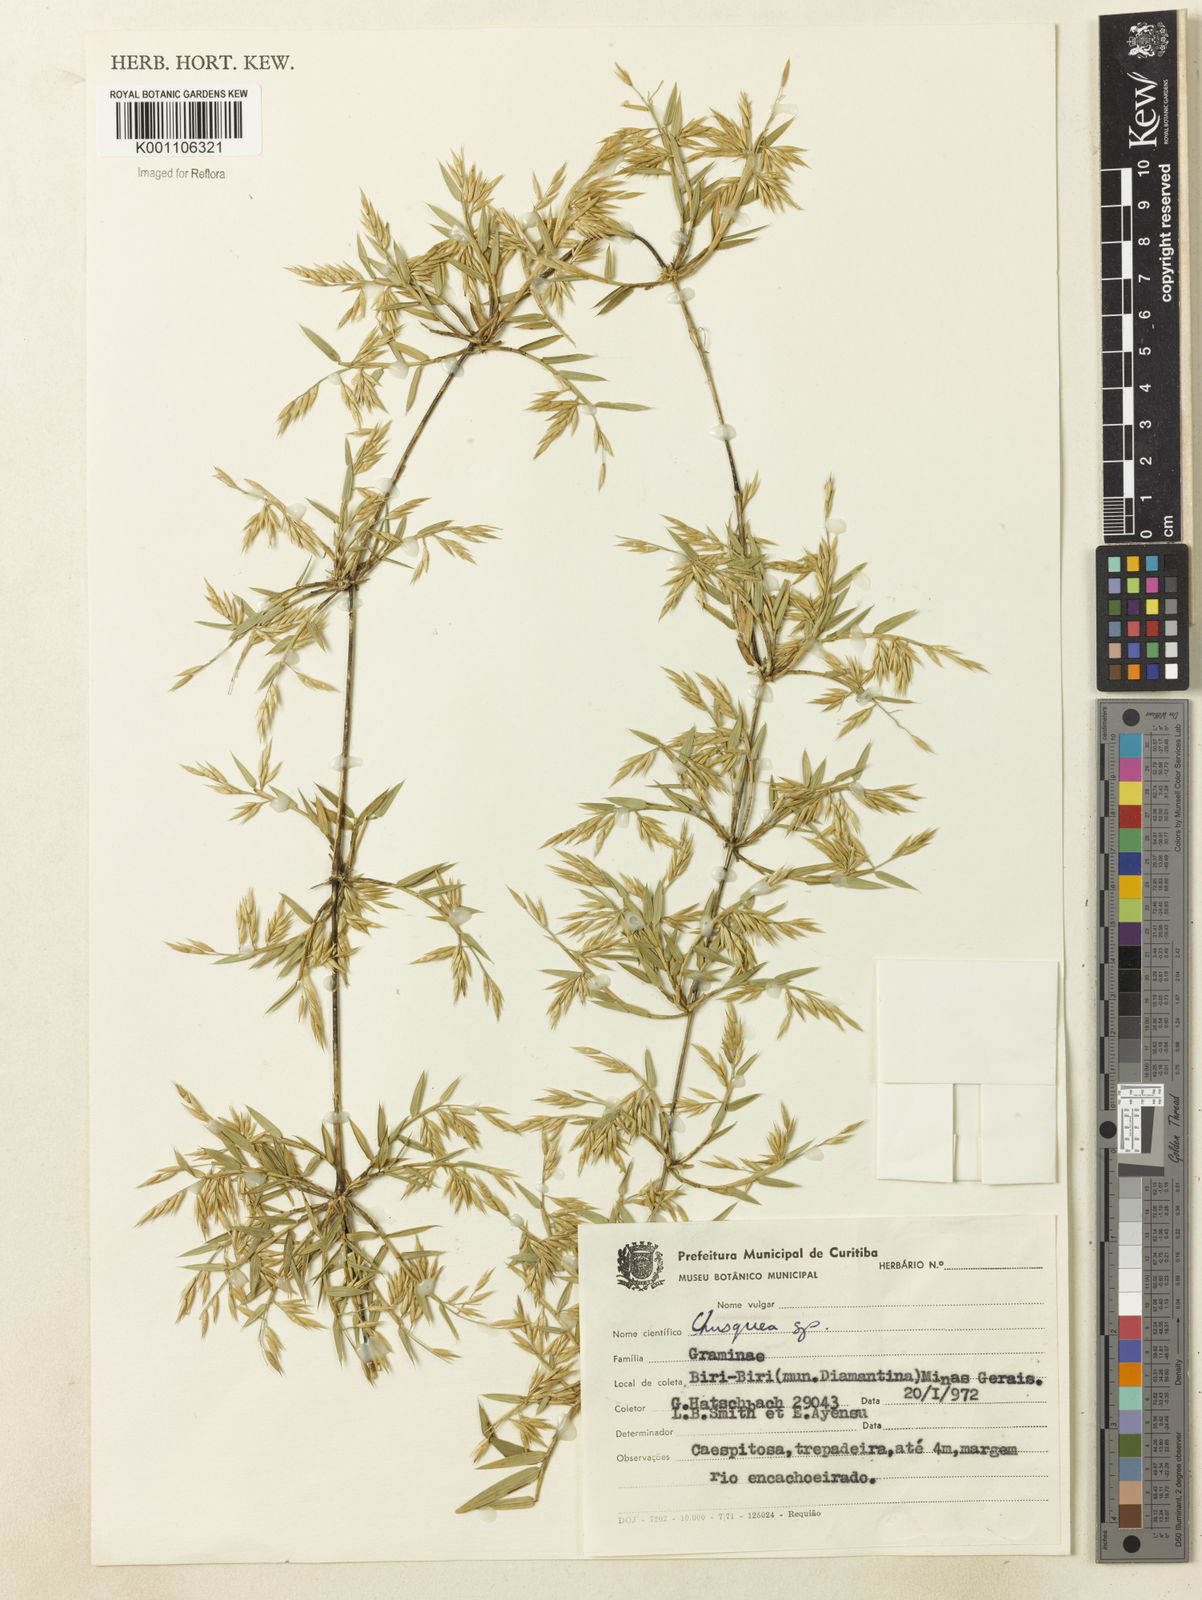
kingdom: Plantae
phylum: Tracheophyta
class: Liliopsida
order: Poales
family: Poaceae
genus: Chusquea
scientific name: Chusquea
